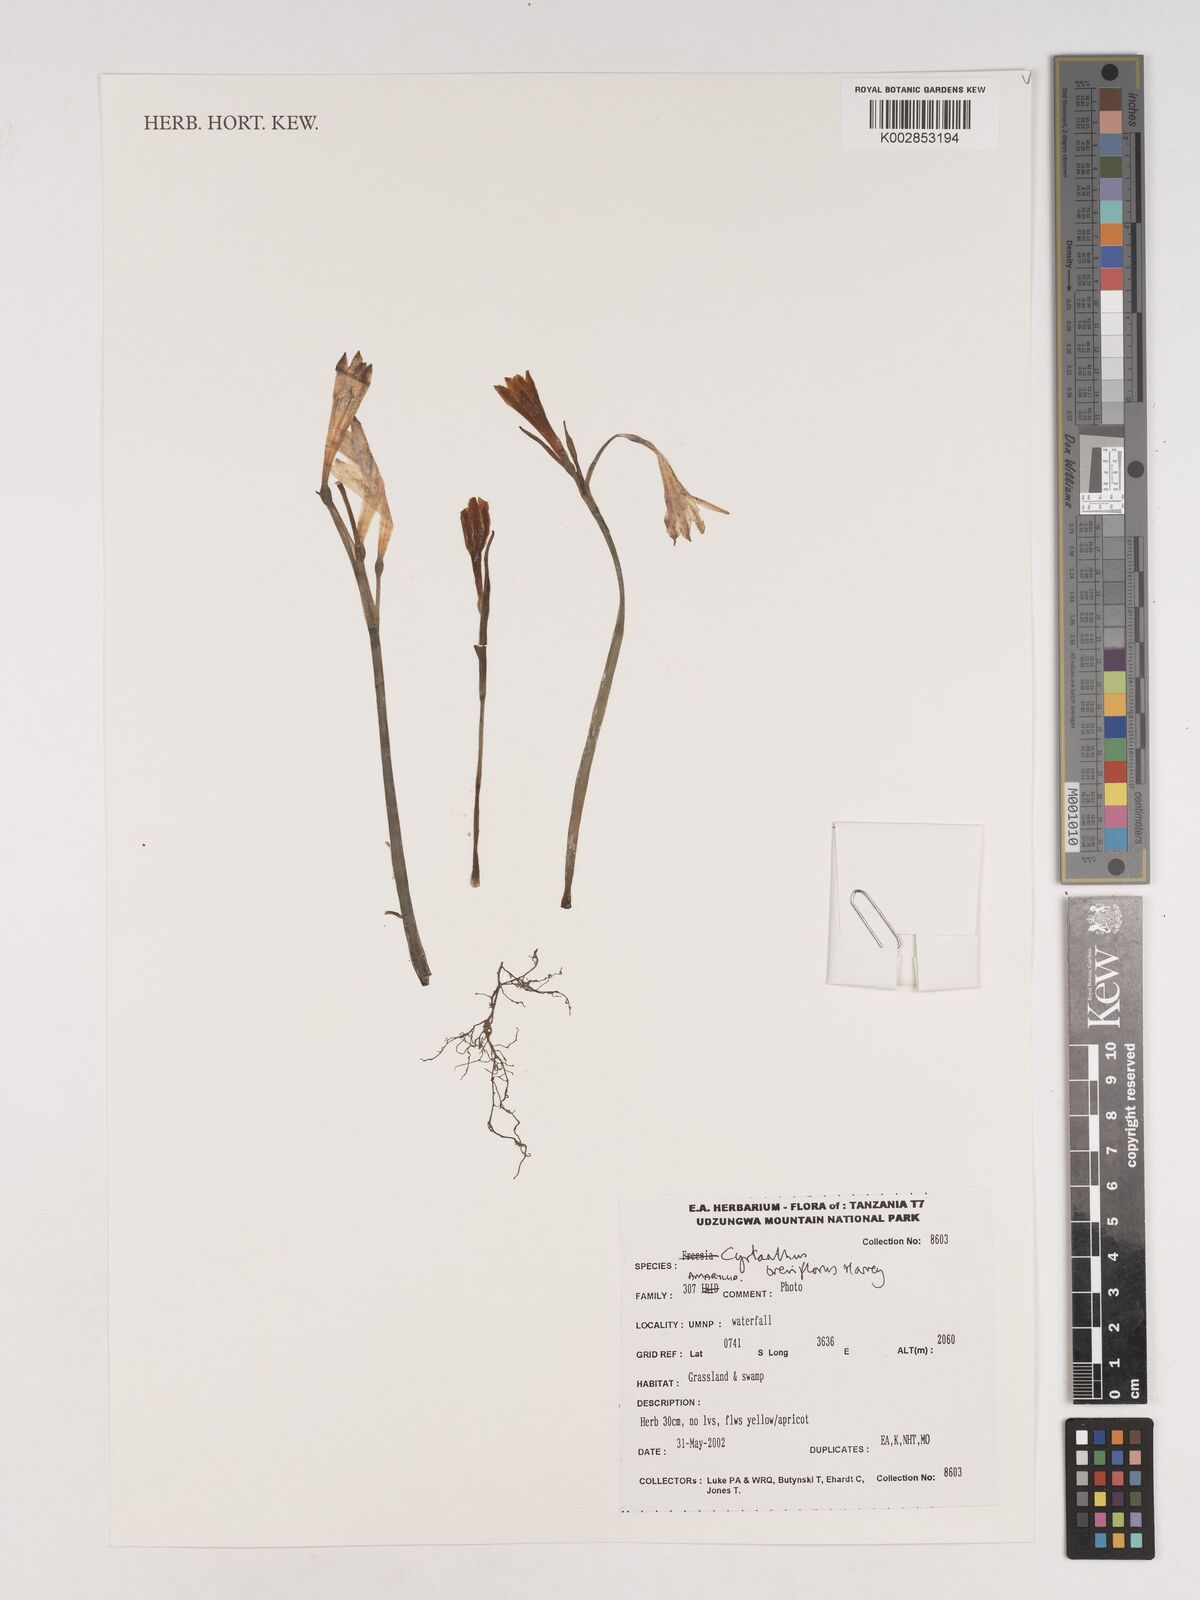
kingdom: Plantae
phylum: Tracheophyta
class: Liliopsida
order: Asparagales
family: Amaryllidaceae
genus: Cyrtanthus
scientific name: Cyrtanthus breviflorus
